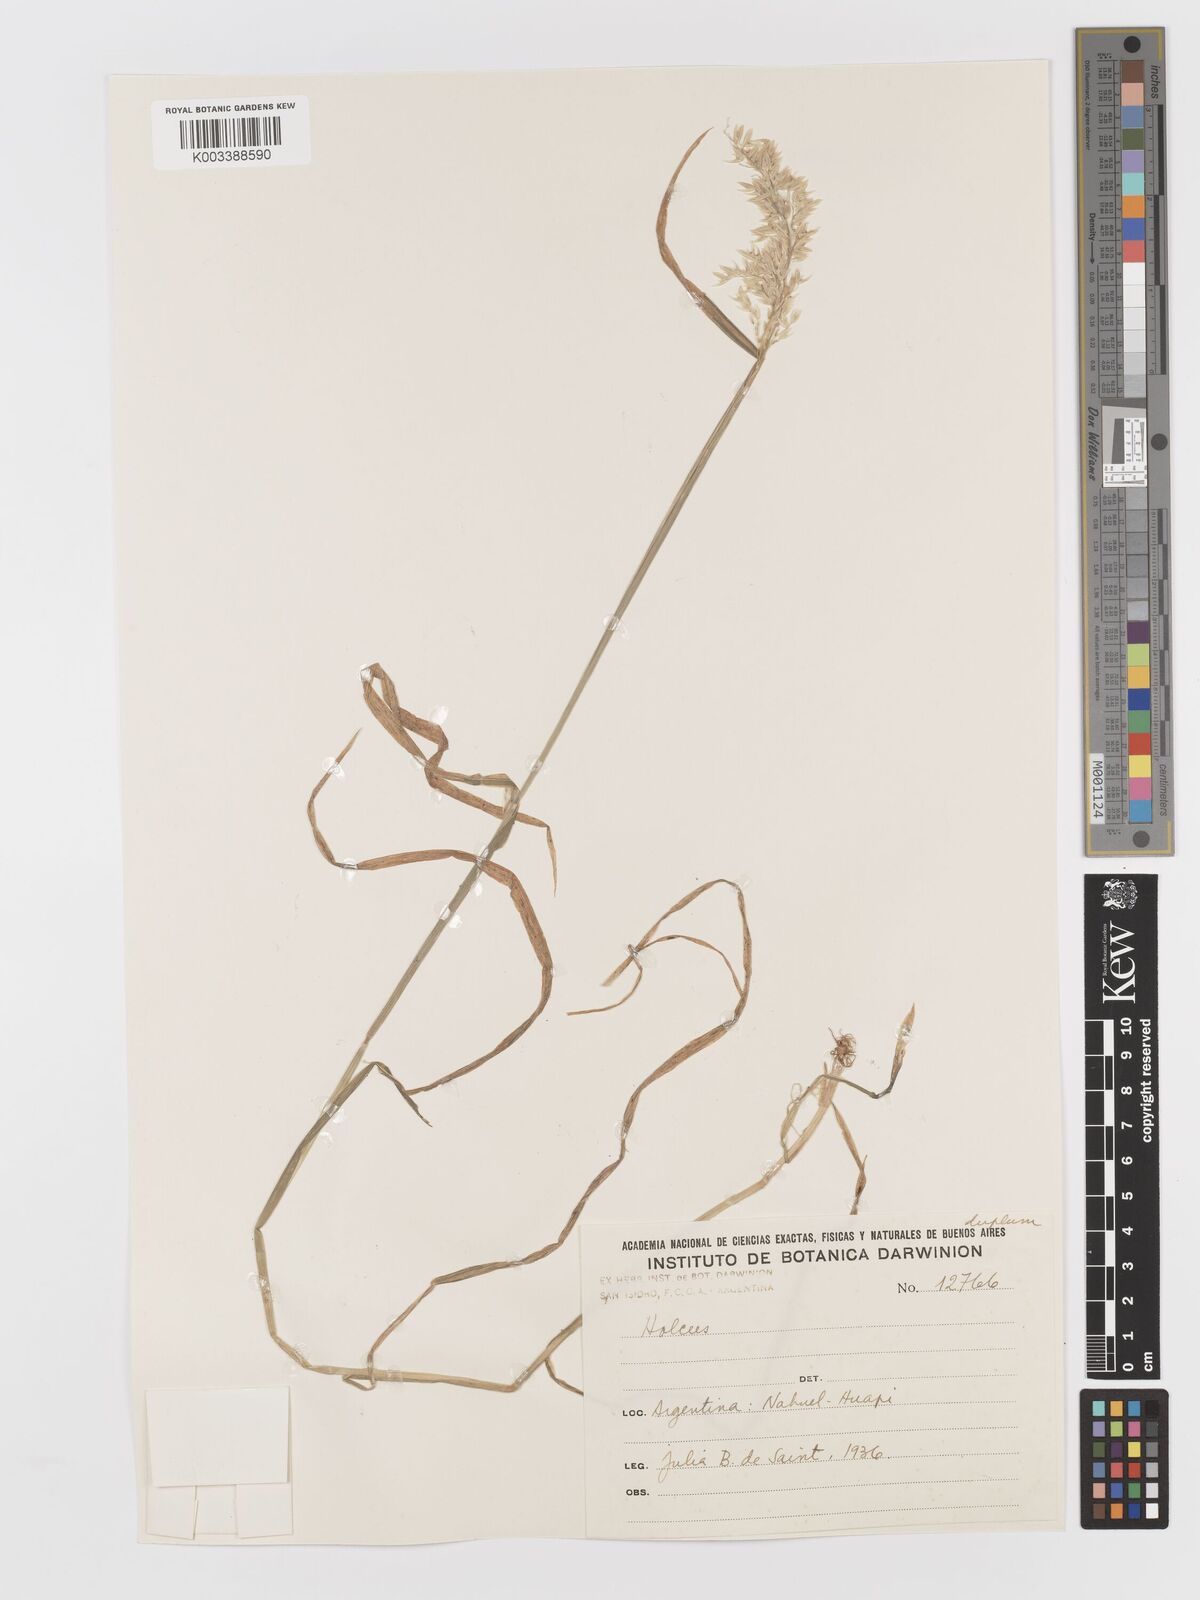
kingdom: Plantae
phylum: Tracheophyta
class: Liliopsida
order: Poales
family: Poaceae
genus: Holcus
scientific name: Holcus lanatus
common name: Yorkshire-fog
